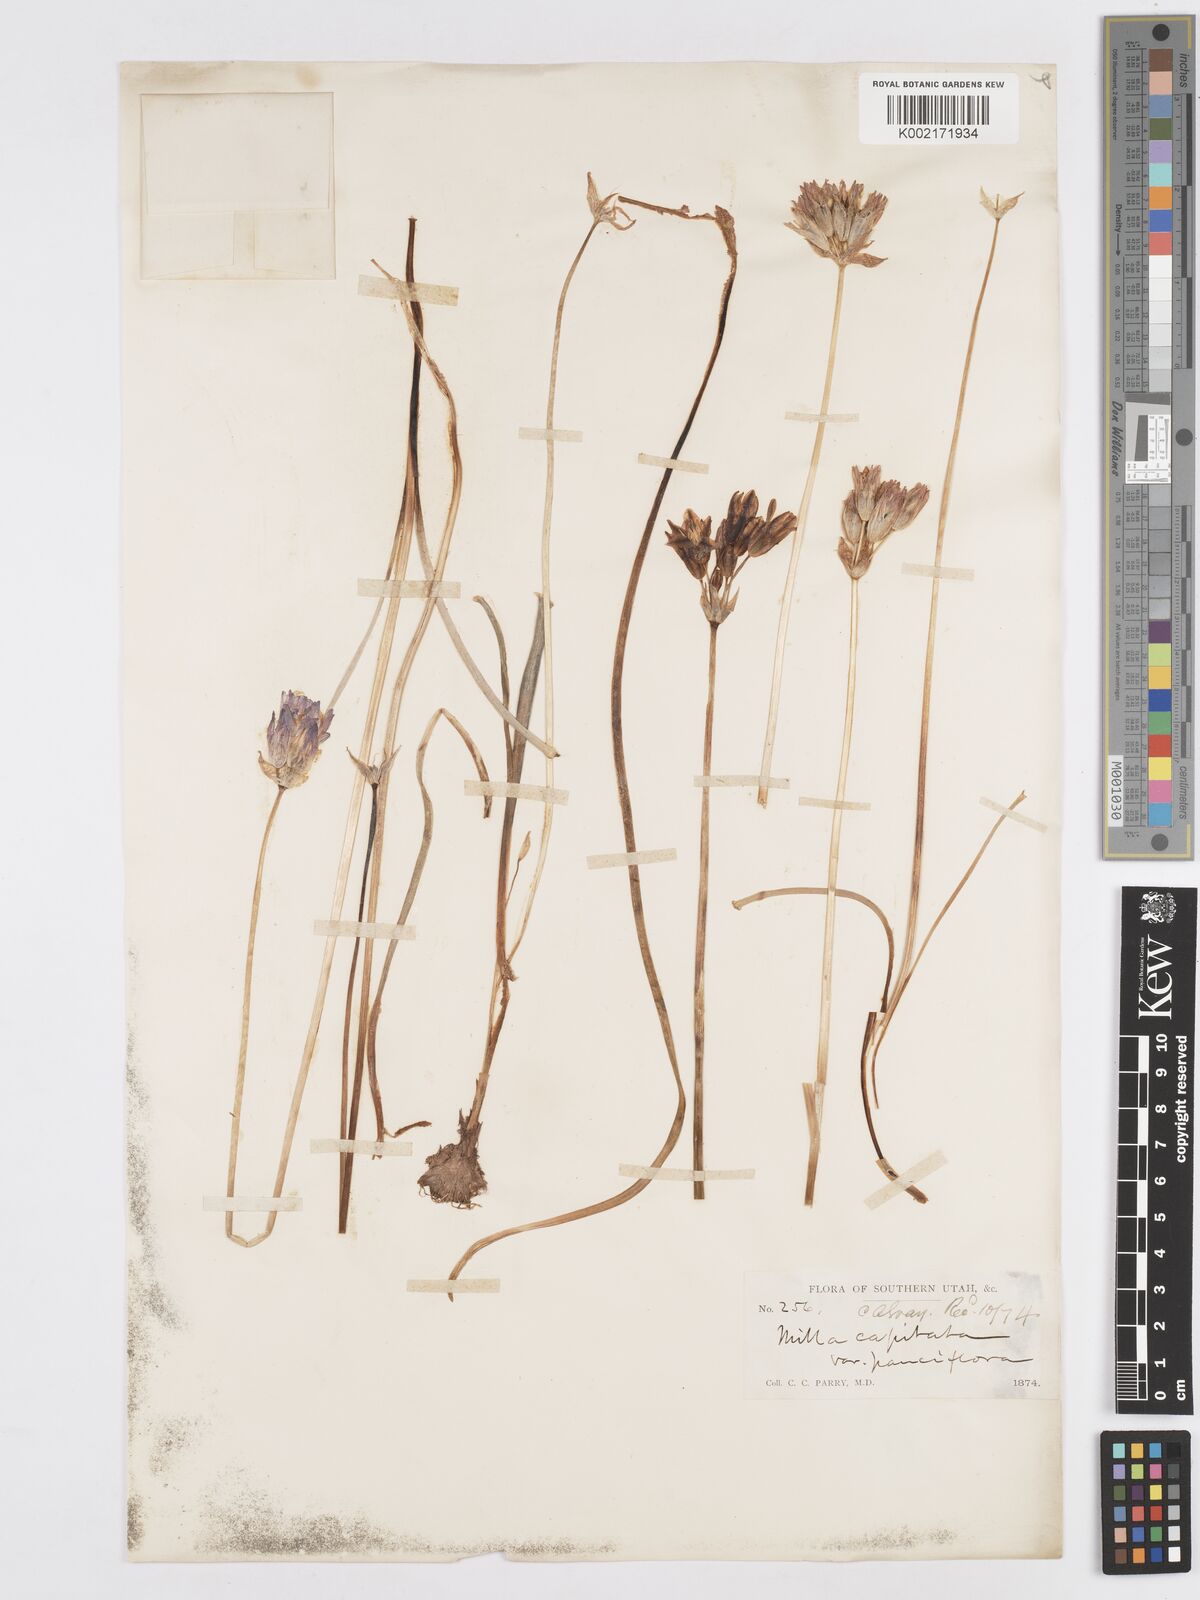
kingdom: Plantae
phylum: Tracheophyta
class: Liliopsida
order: Asparagales
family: Asparagaceae
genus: Dichelostemma
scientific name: Dichelostemma congestum
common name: Fork-tooth ookow
